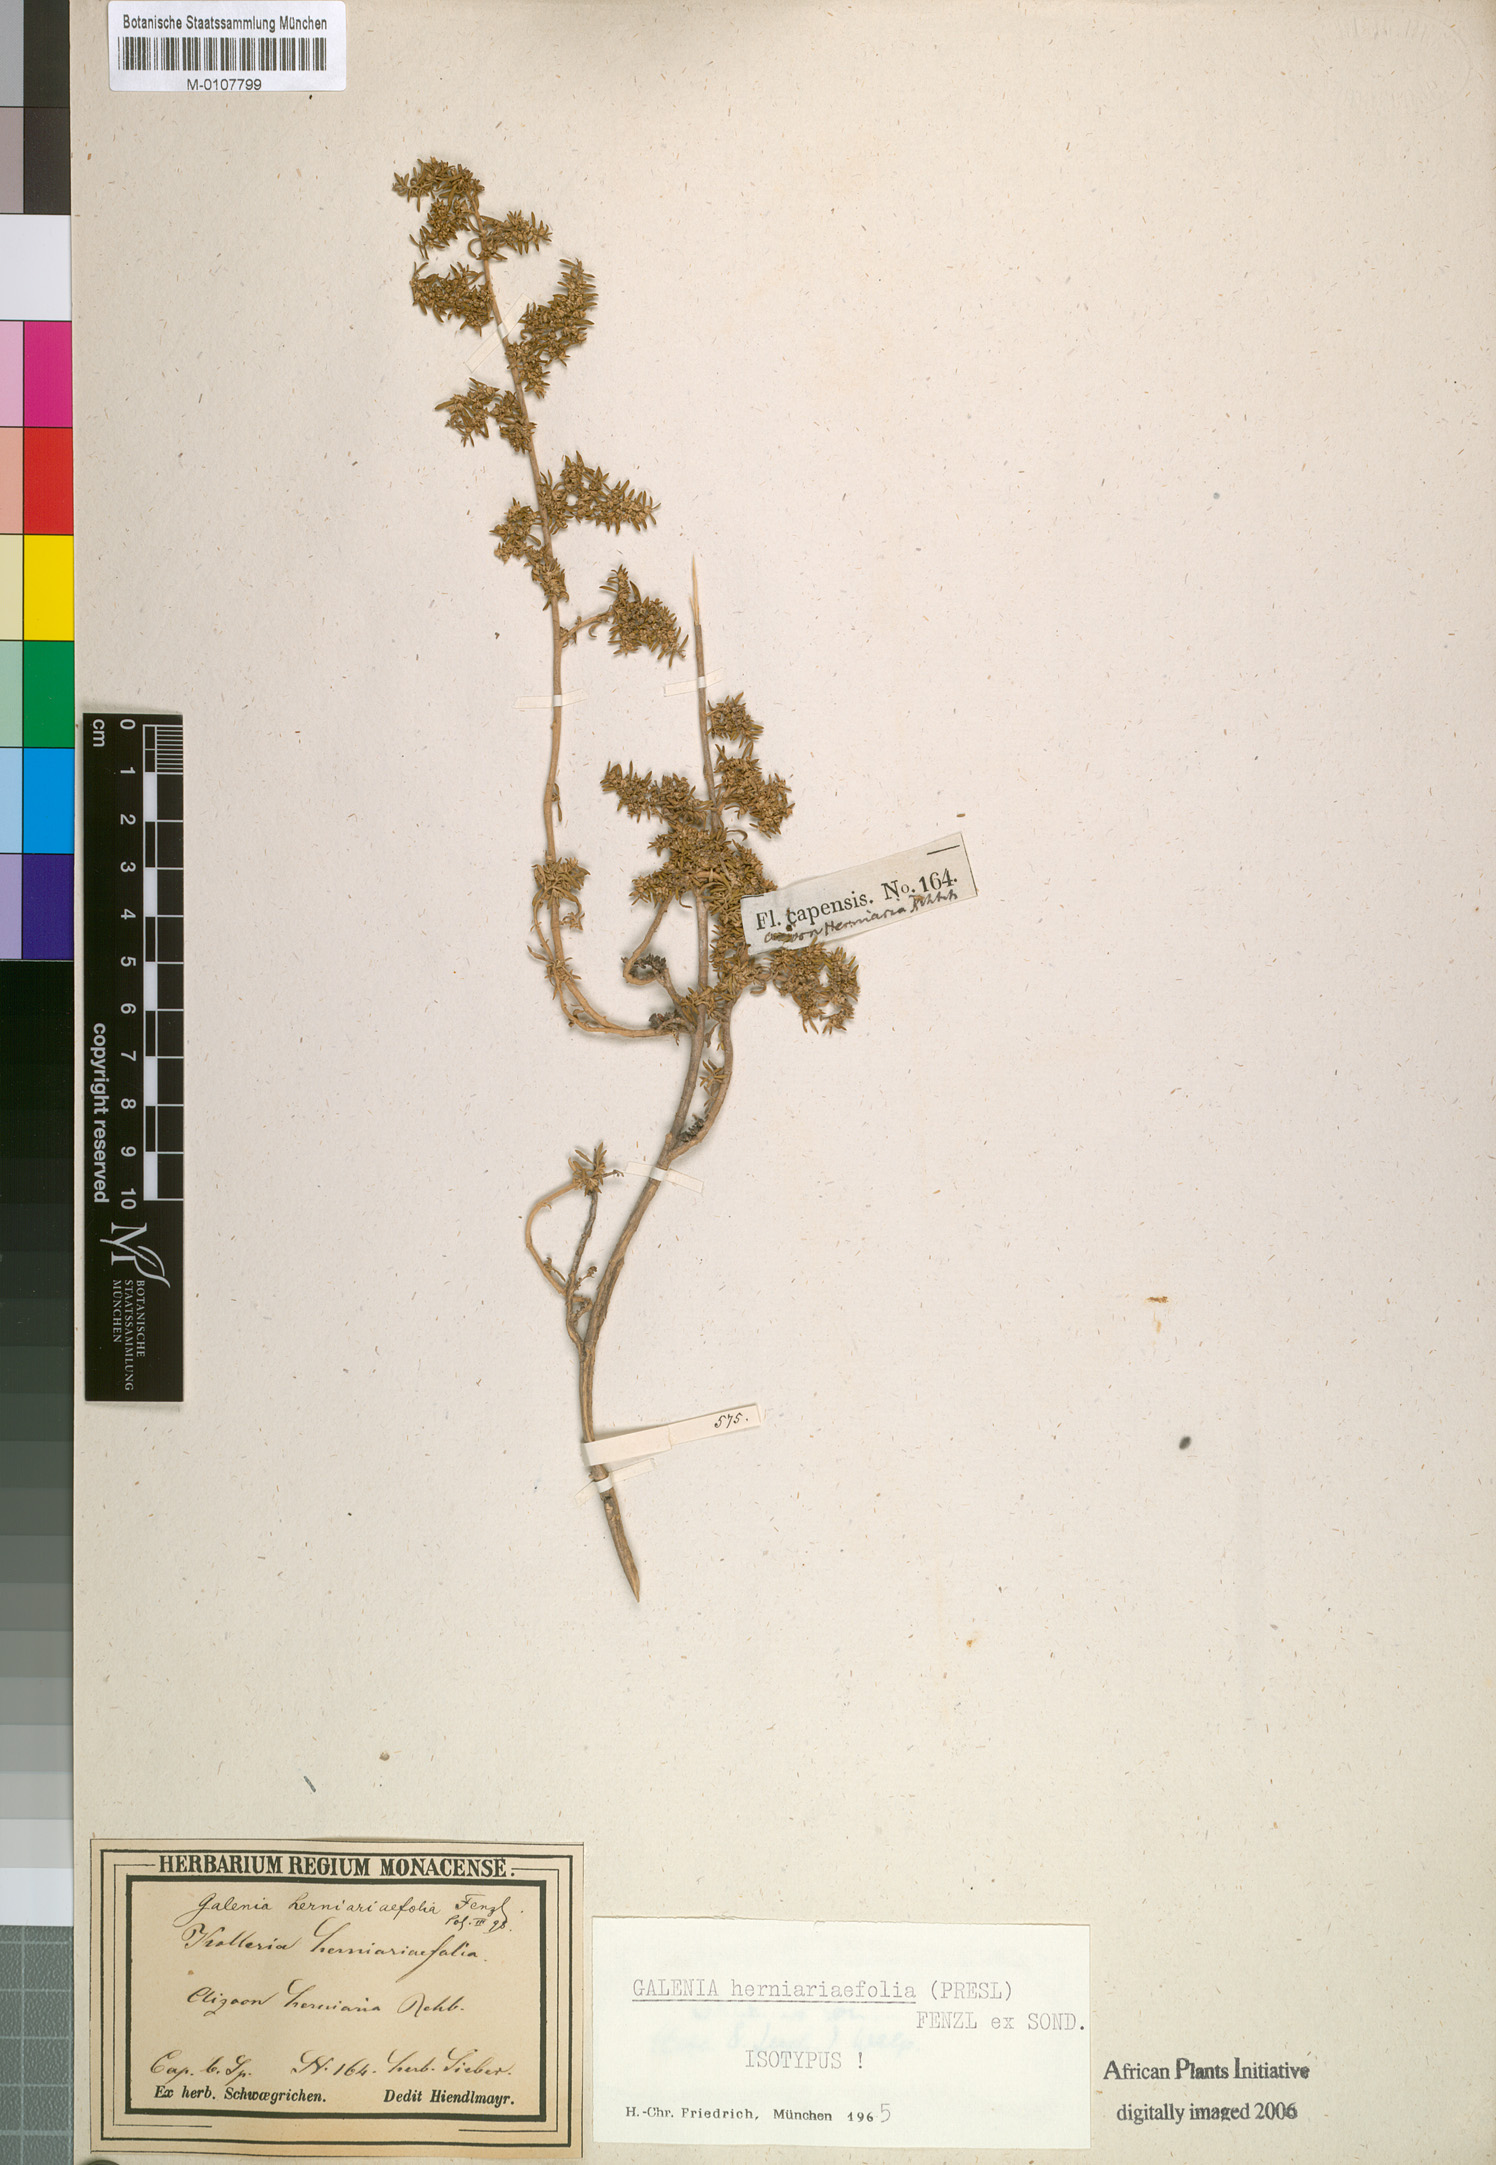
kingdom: Plantae
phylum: Tracheophyta
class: Magnoliopsida
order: Caryophyllales
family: Aizoaceae
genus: Aizoon
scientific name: Aizoon herniariifolium
